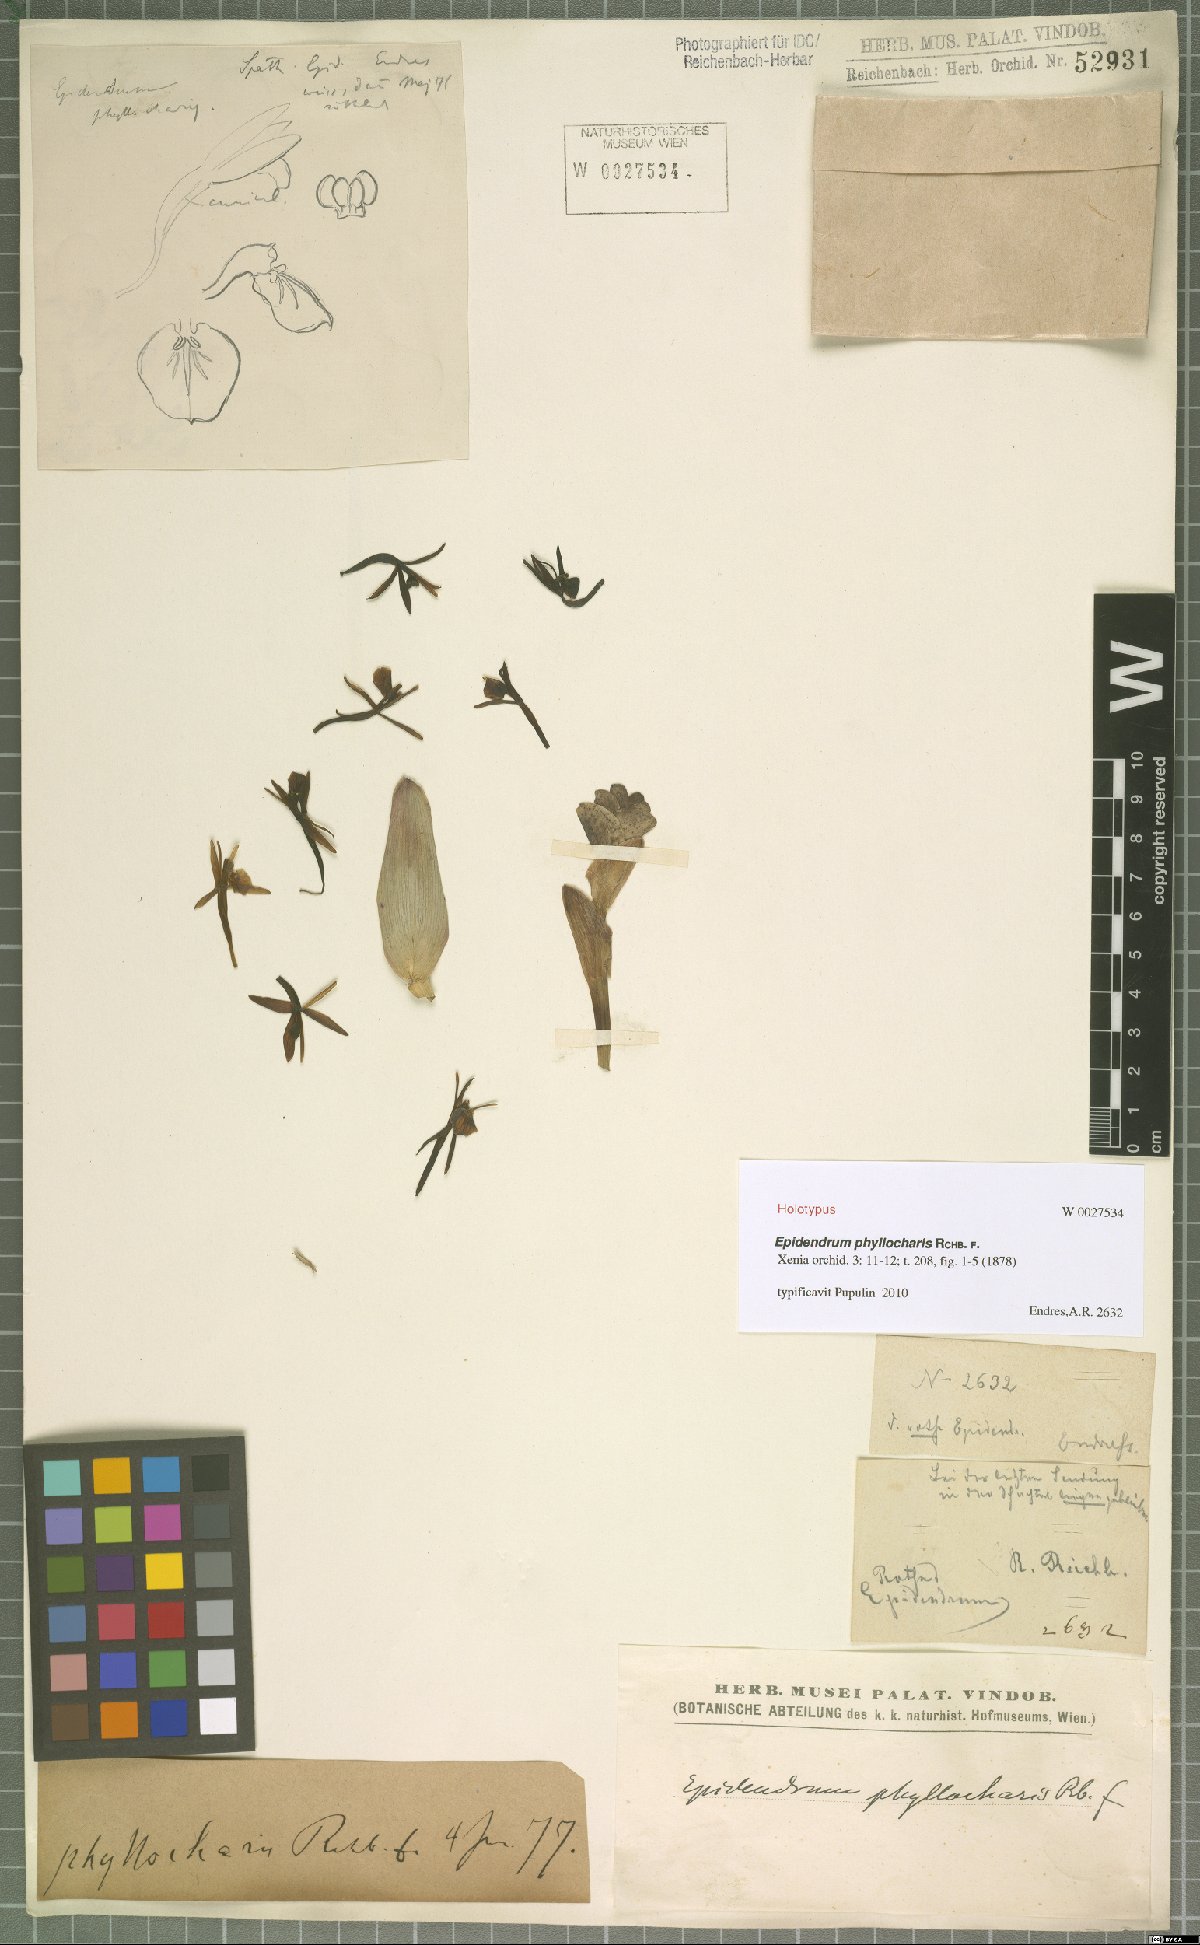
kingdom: Plantae
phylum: Tracheophyta
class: Liliopsida
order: Asparagales
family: Orchidaceae
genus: Epidendrum
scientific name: Epidendrum phyllocharis
